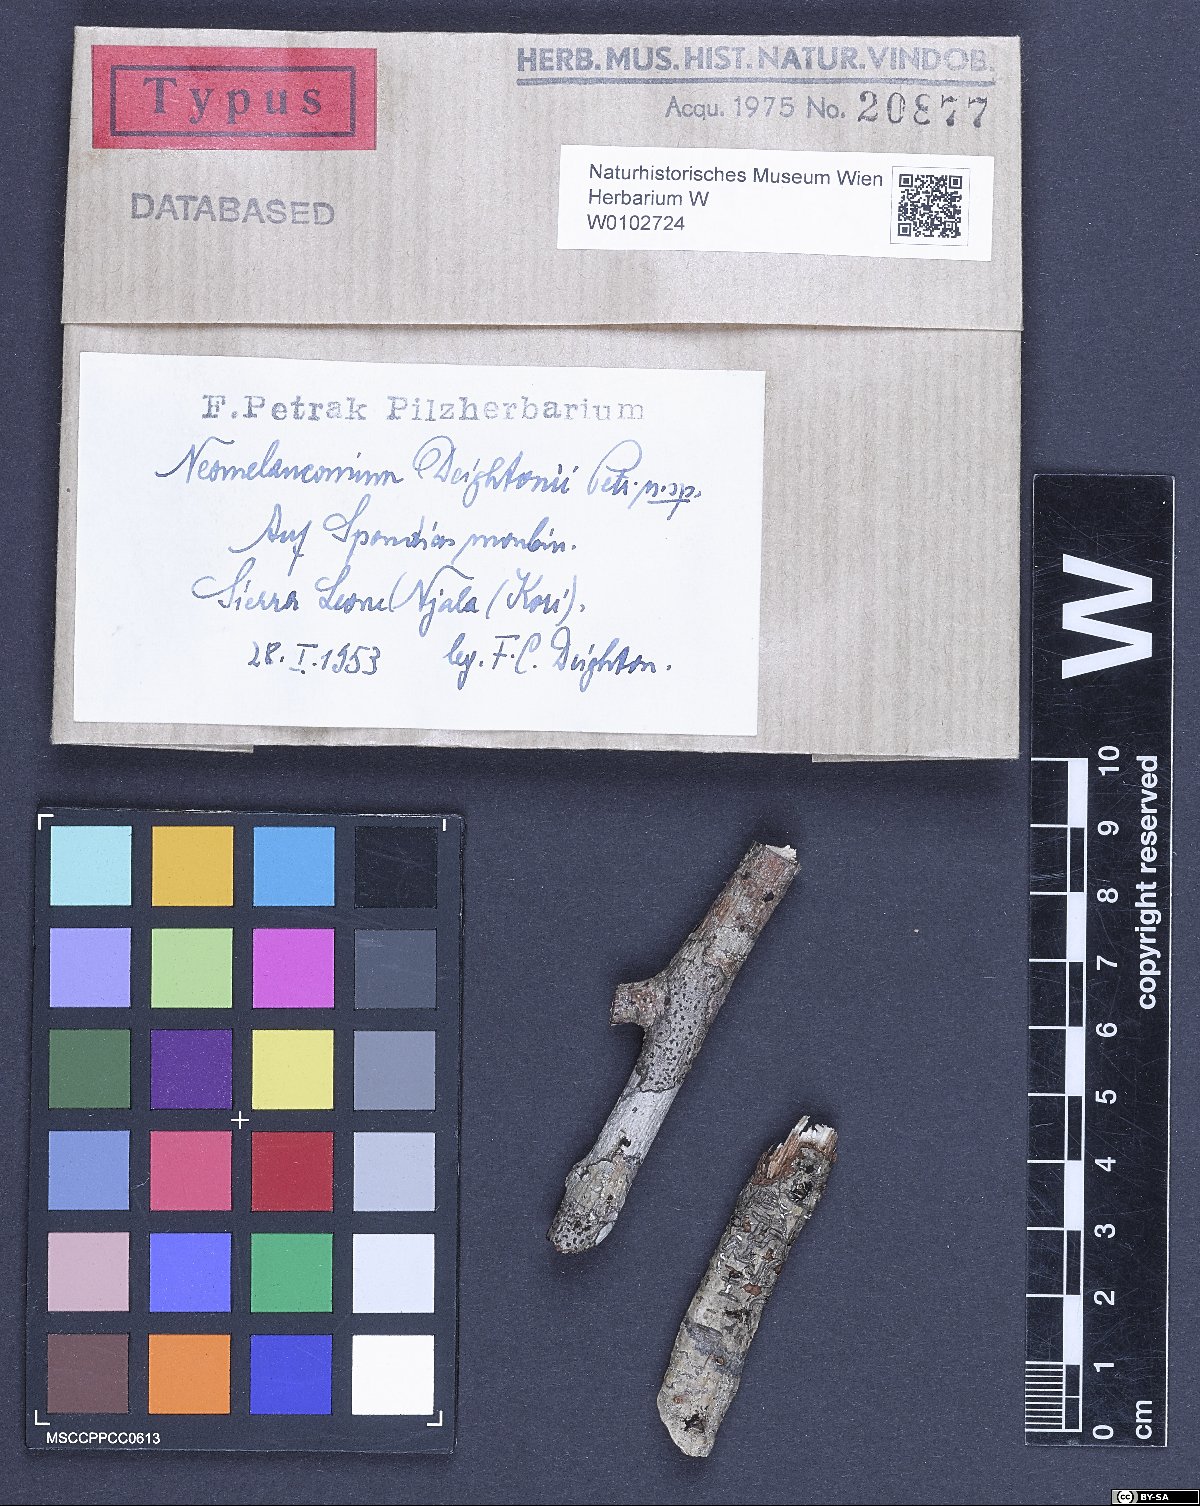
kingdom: Fungi
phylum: Ascomycota
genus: Neomelanconium
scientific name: Neomelanconium deightonii
